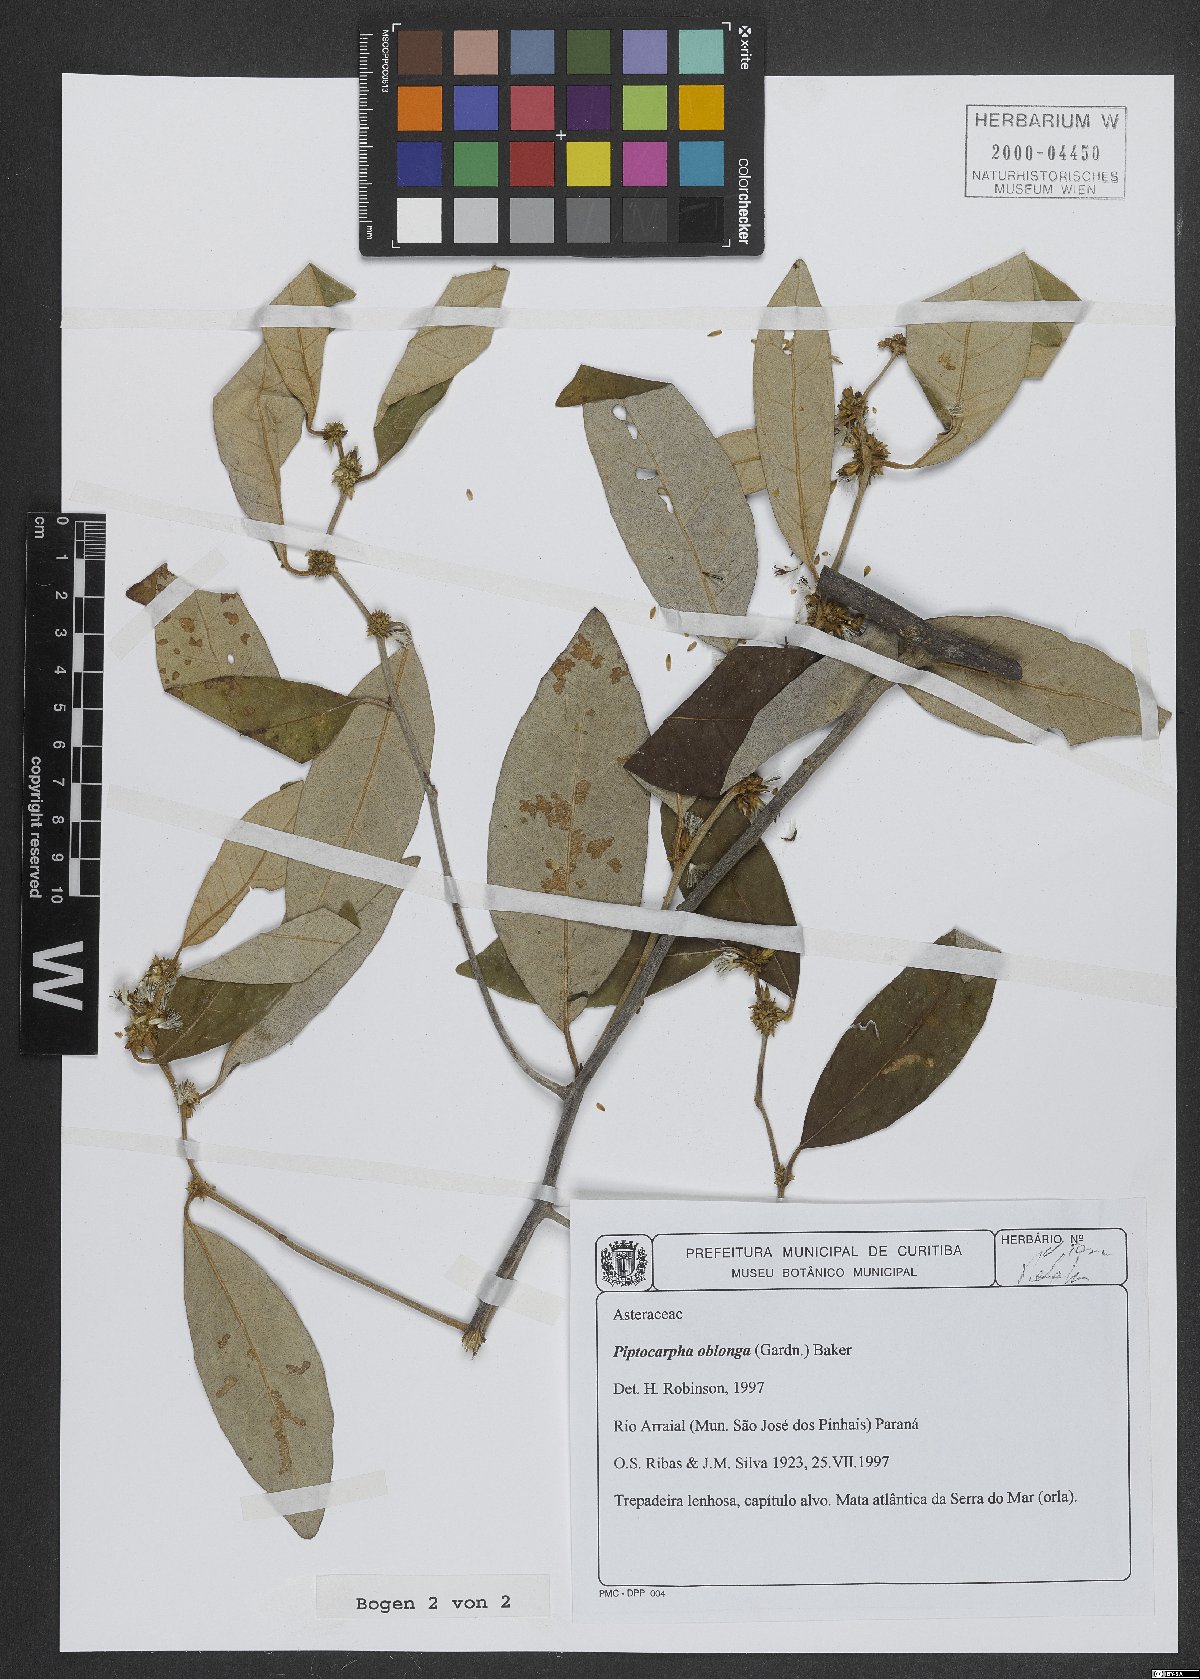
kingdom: Plantae
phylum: Tracheophyta
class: Magnoliopsida
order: Asterales
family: Asteraceae
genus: Piptocarpha
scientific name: Piptocarpha oblonga
